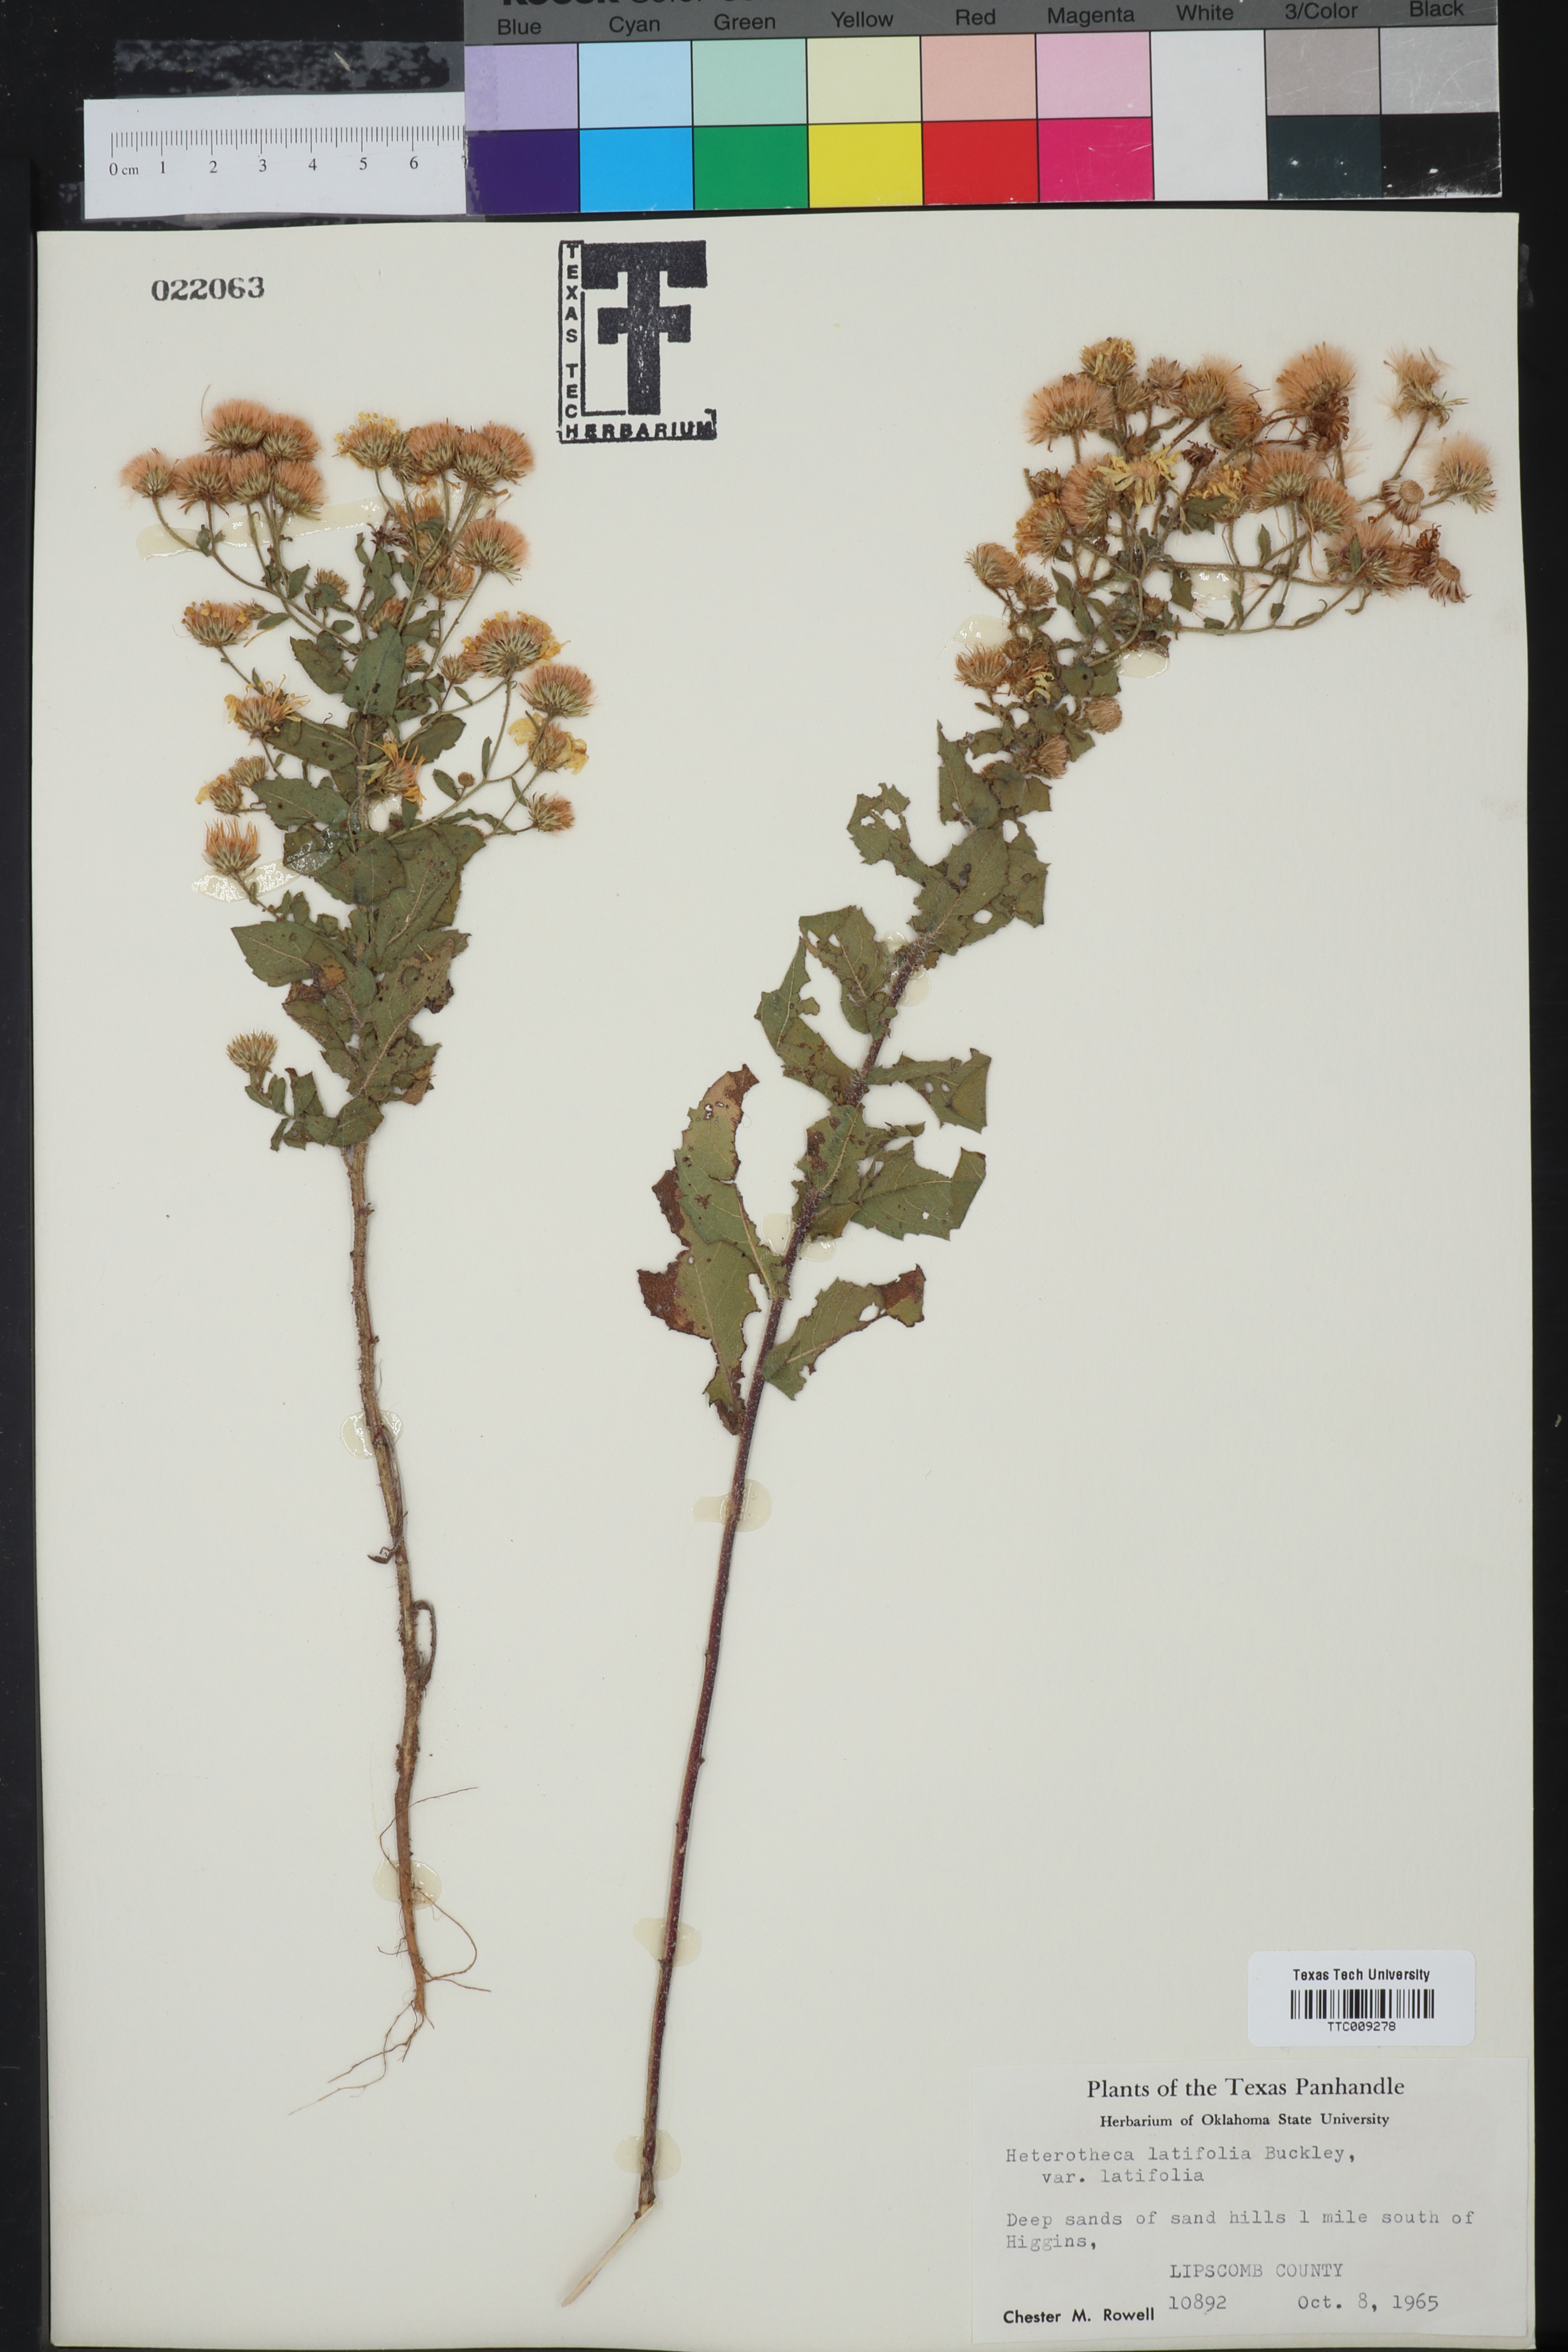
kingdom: Plantae
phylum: Tracheophyta
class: Magnoliopsida
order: Asterales
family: Asteraceae
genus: Heterotheca
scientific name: Heterotheca subaxillaris
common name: Camphorweed
